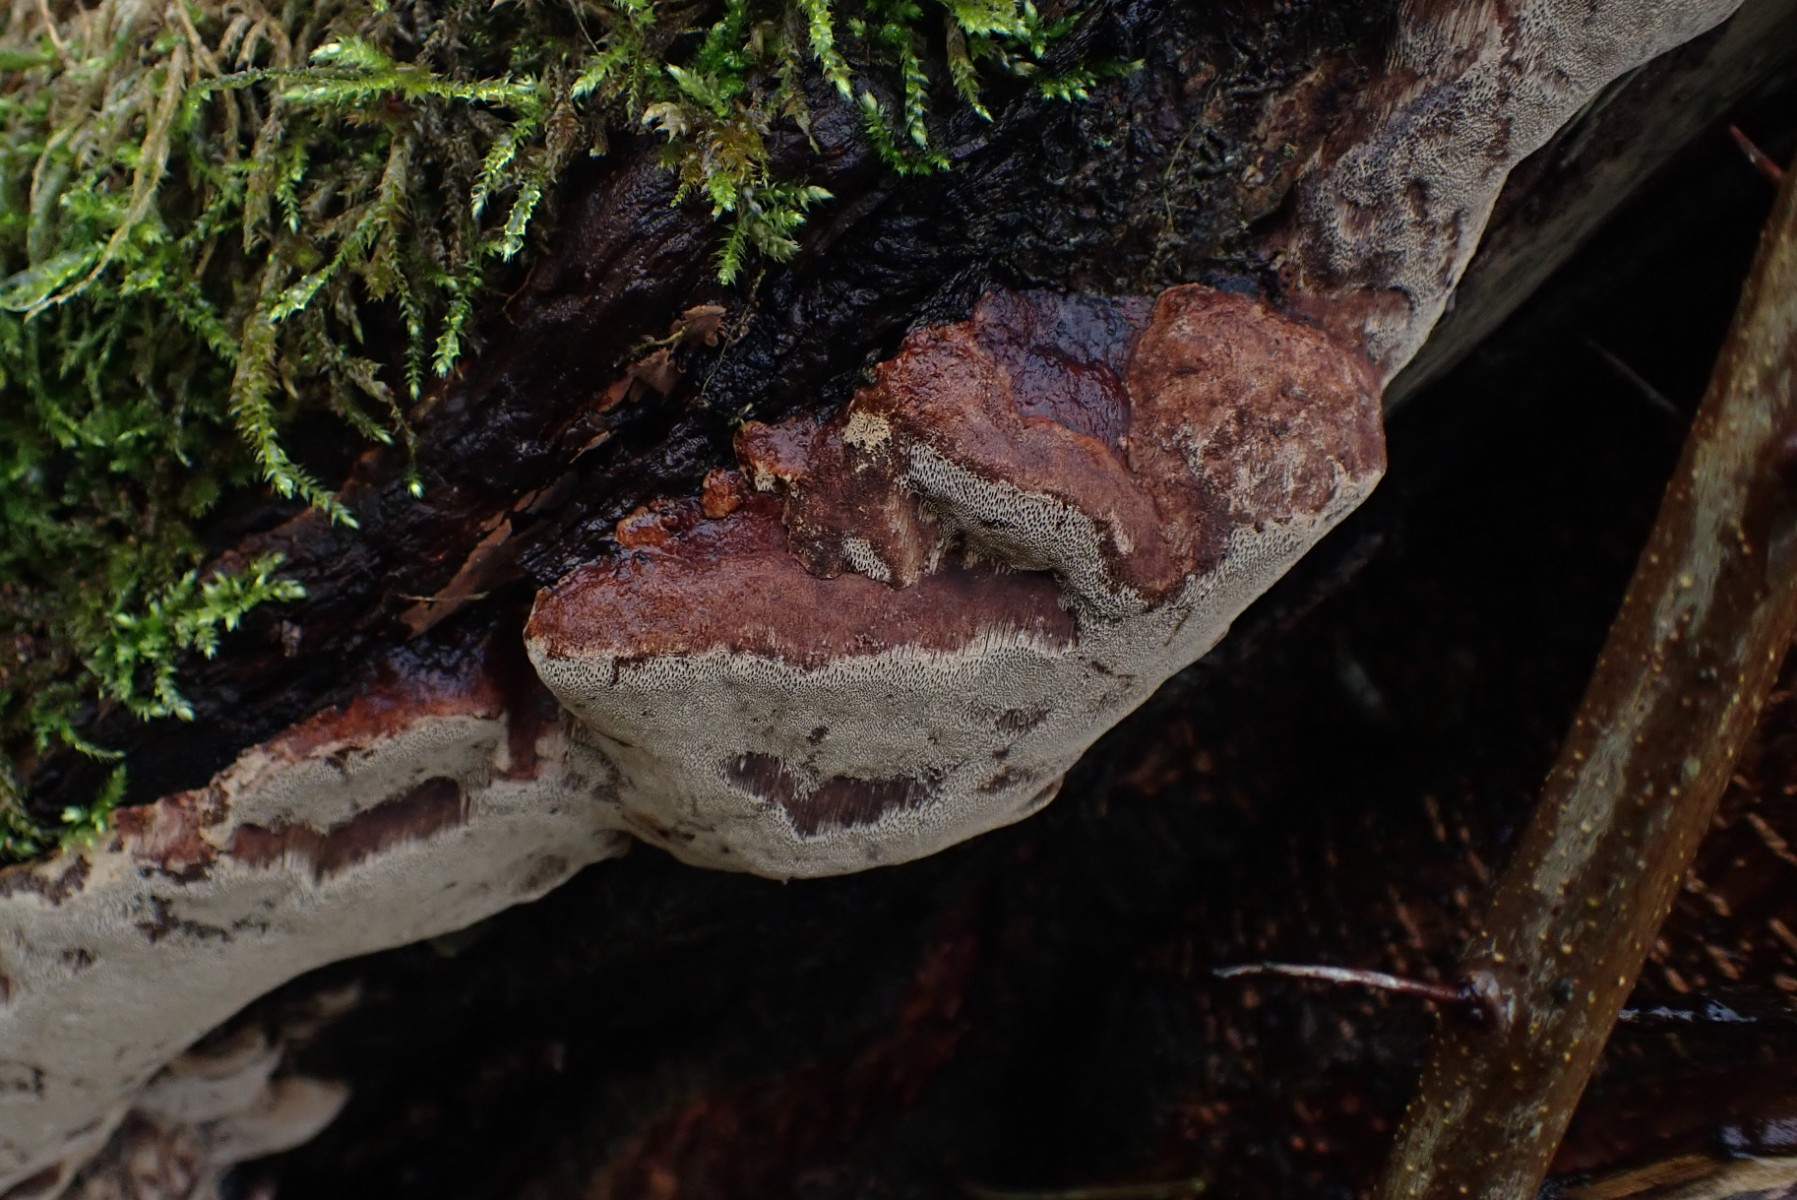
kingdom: Fungi
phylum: Basidiomycota
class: Agaricomycetes
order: Hymenochaetales
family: Hymenochaetaceae
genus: Phellinus
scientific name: Phellinus pomaceus
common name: blomme-ildporesvamp
